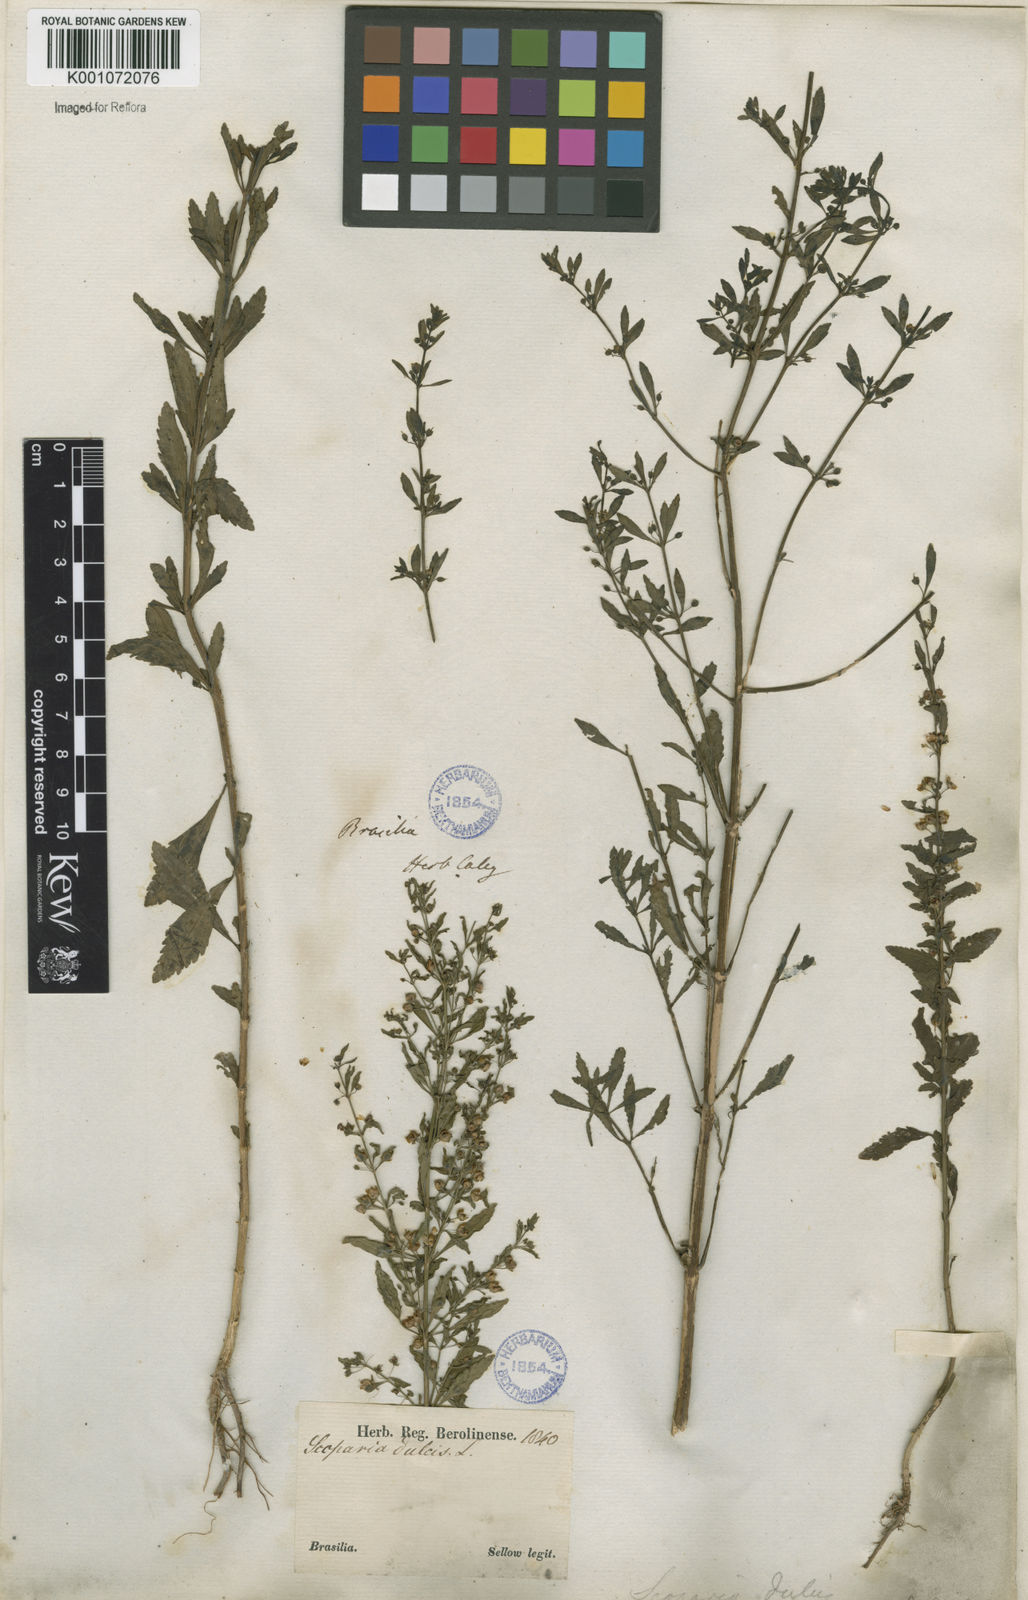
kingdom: Plantae
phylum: Tracheophyta
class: Magnoliopsida
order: Lamiales
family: Plantaginaceae
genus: Scoparia
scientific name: Scoparia dulcis
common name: Scoparia-weed
